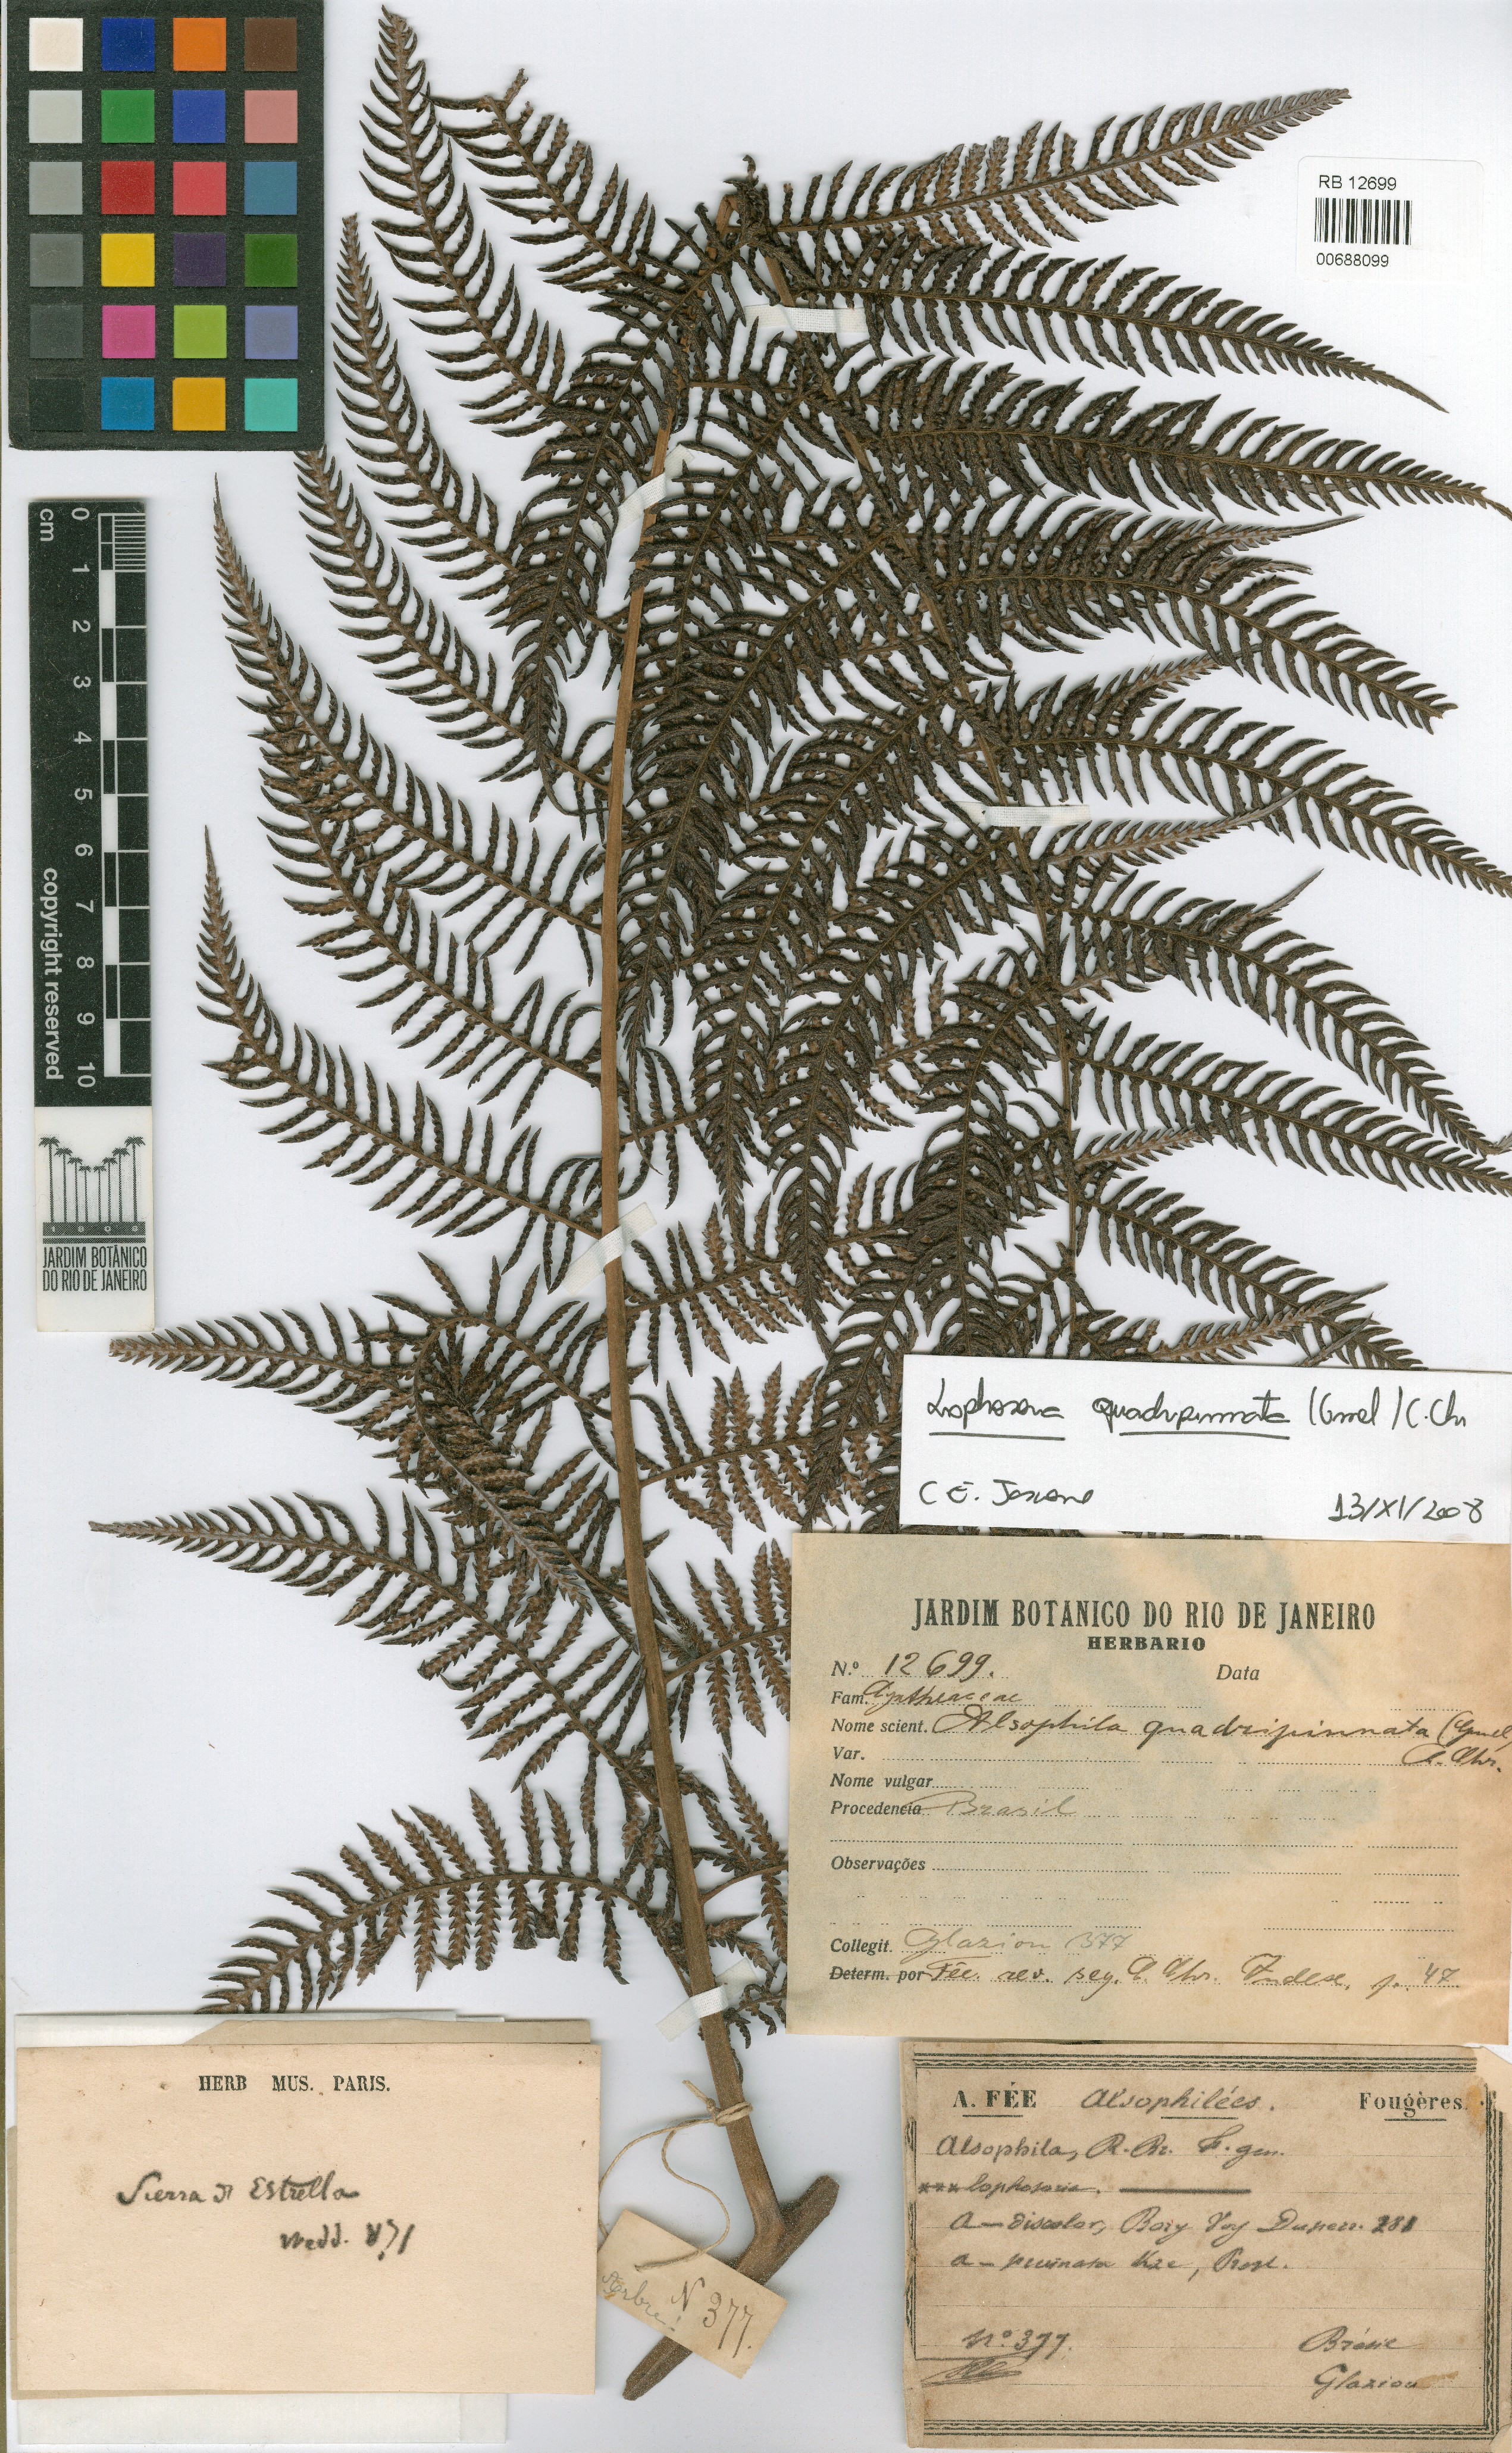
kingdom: Plantae
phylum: Tracheophyta
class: Polypodiopsida
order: Cyatheales
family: Dicksoniaceae
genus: Lophosoria
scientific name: Lophosoria quadripinnata
